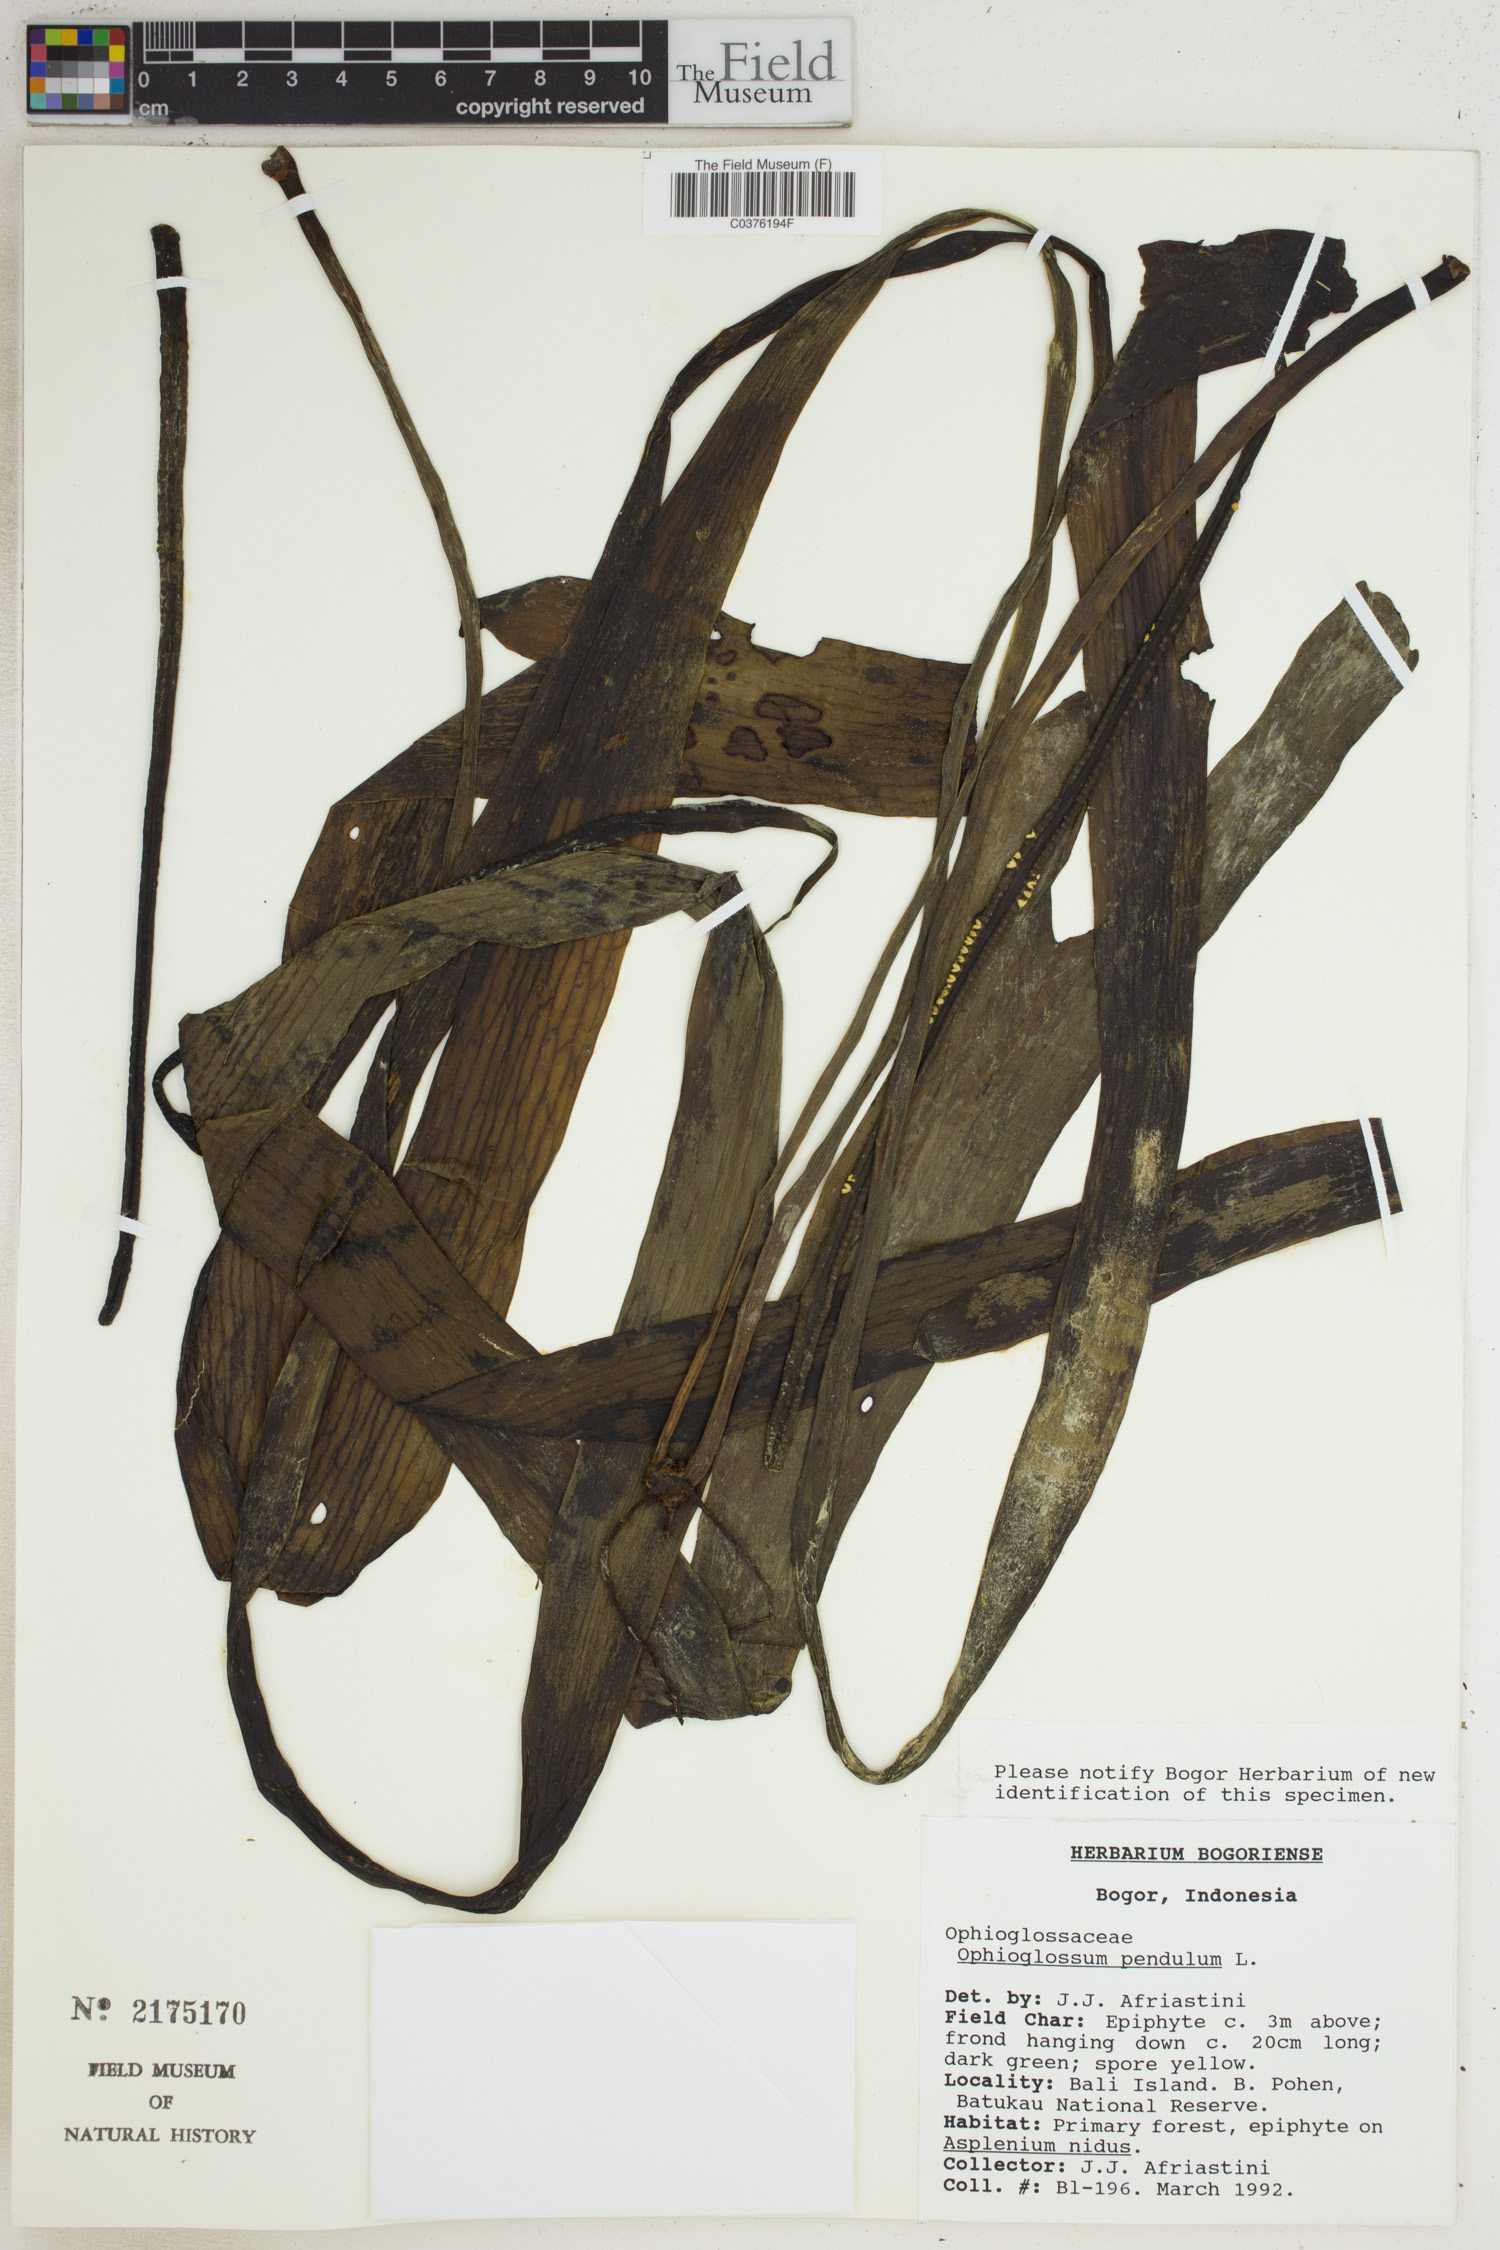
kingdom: Plantae
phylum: Tracheophyta
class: Polypodiopsida
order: Ophioglossales
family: Ophioglossaceae
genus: Ophioderma
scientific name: Ophioderma pendulum
